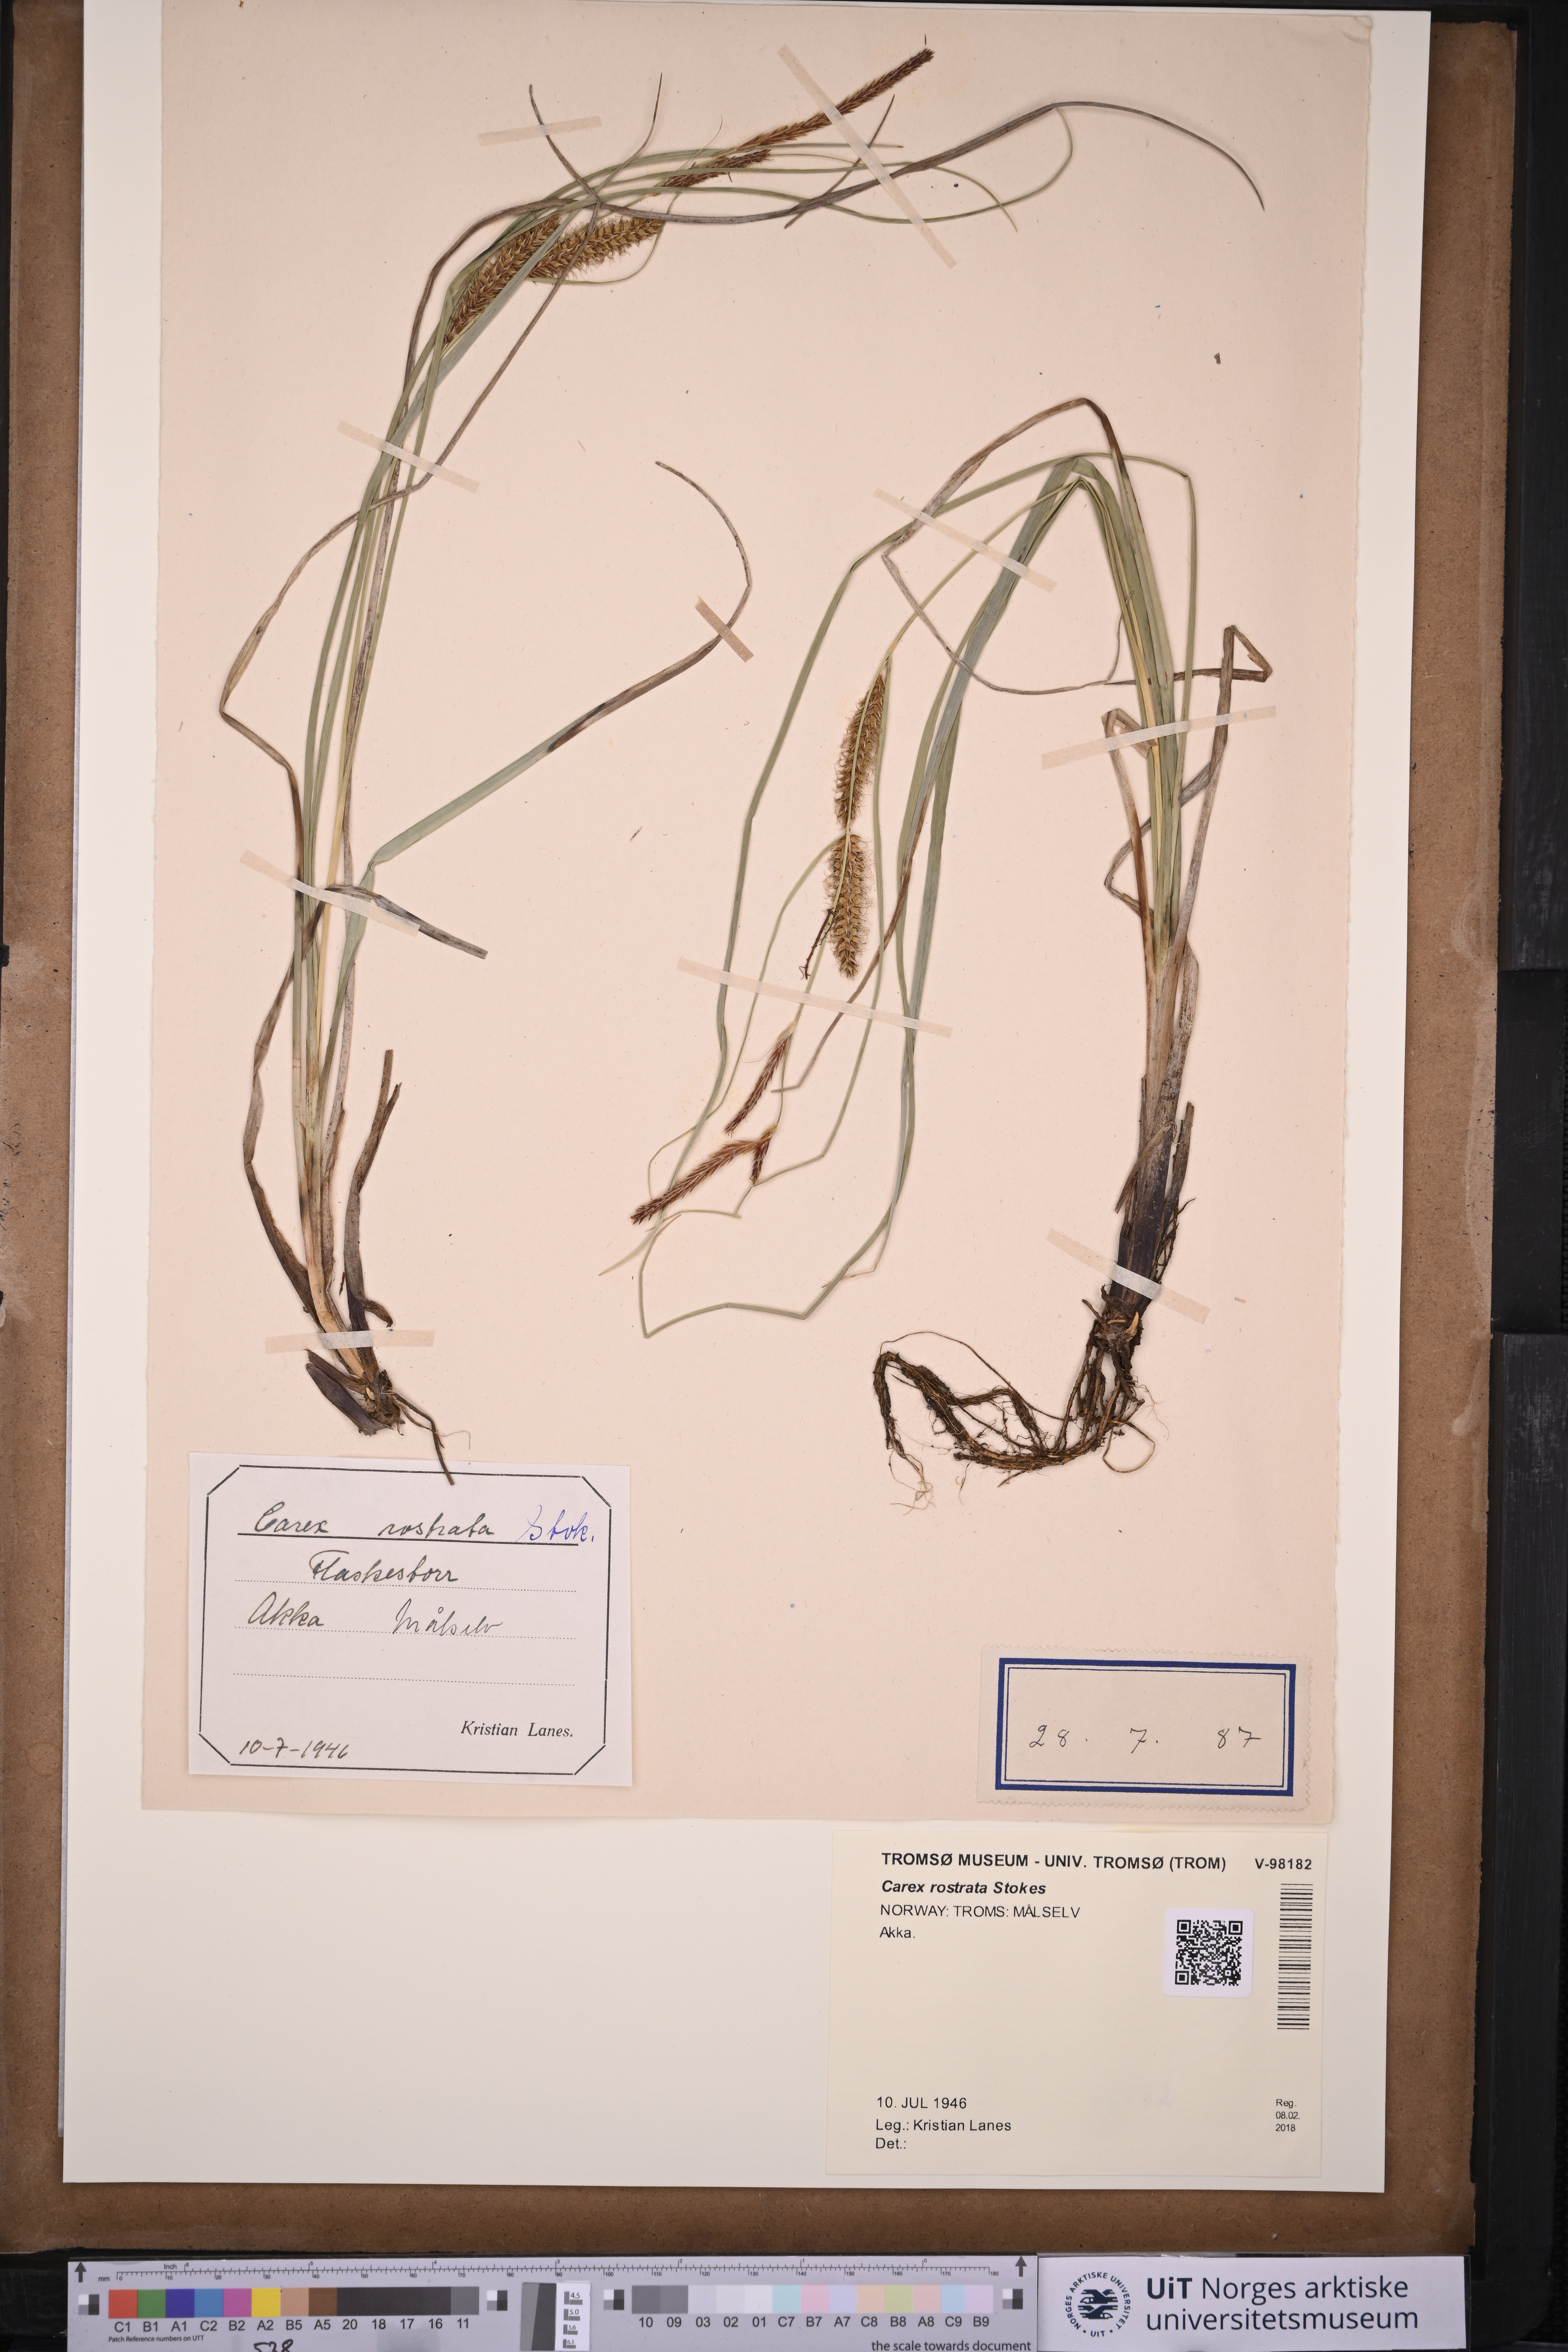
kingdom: Plantae
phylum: Tracheophyta
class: Liliopsida
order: Poales
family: Cyperaceae
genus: Carex
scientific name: Carex rostrata
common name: Bottle sedge
